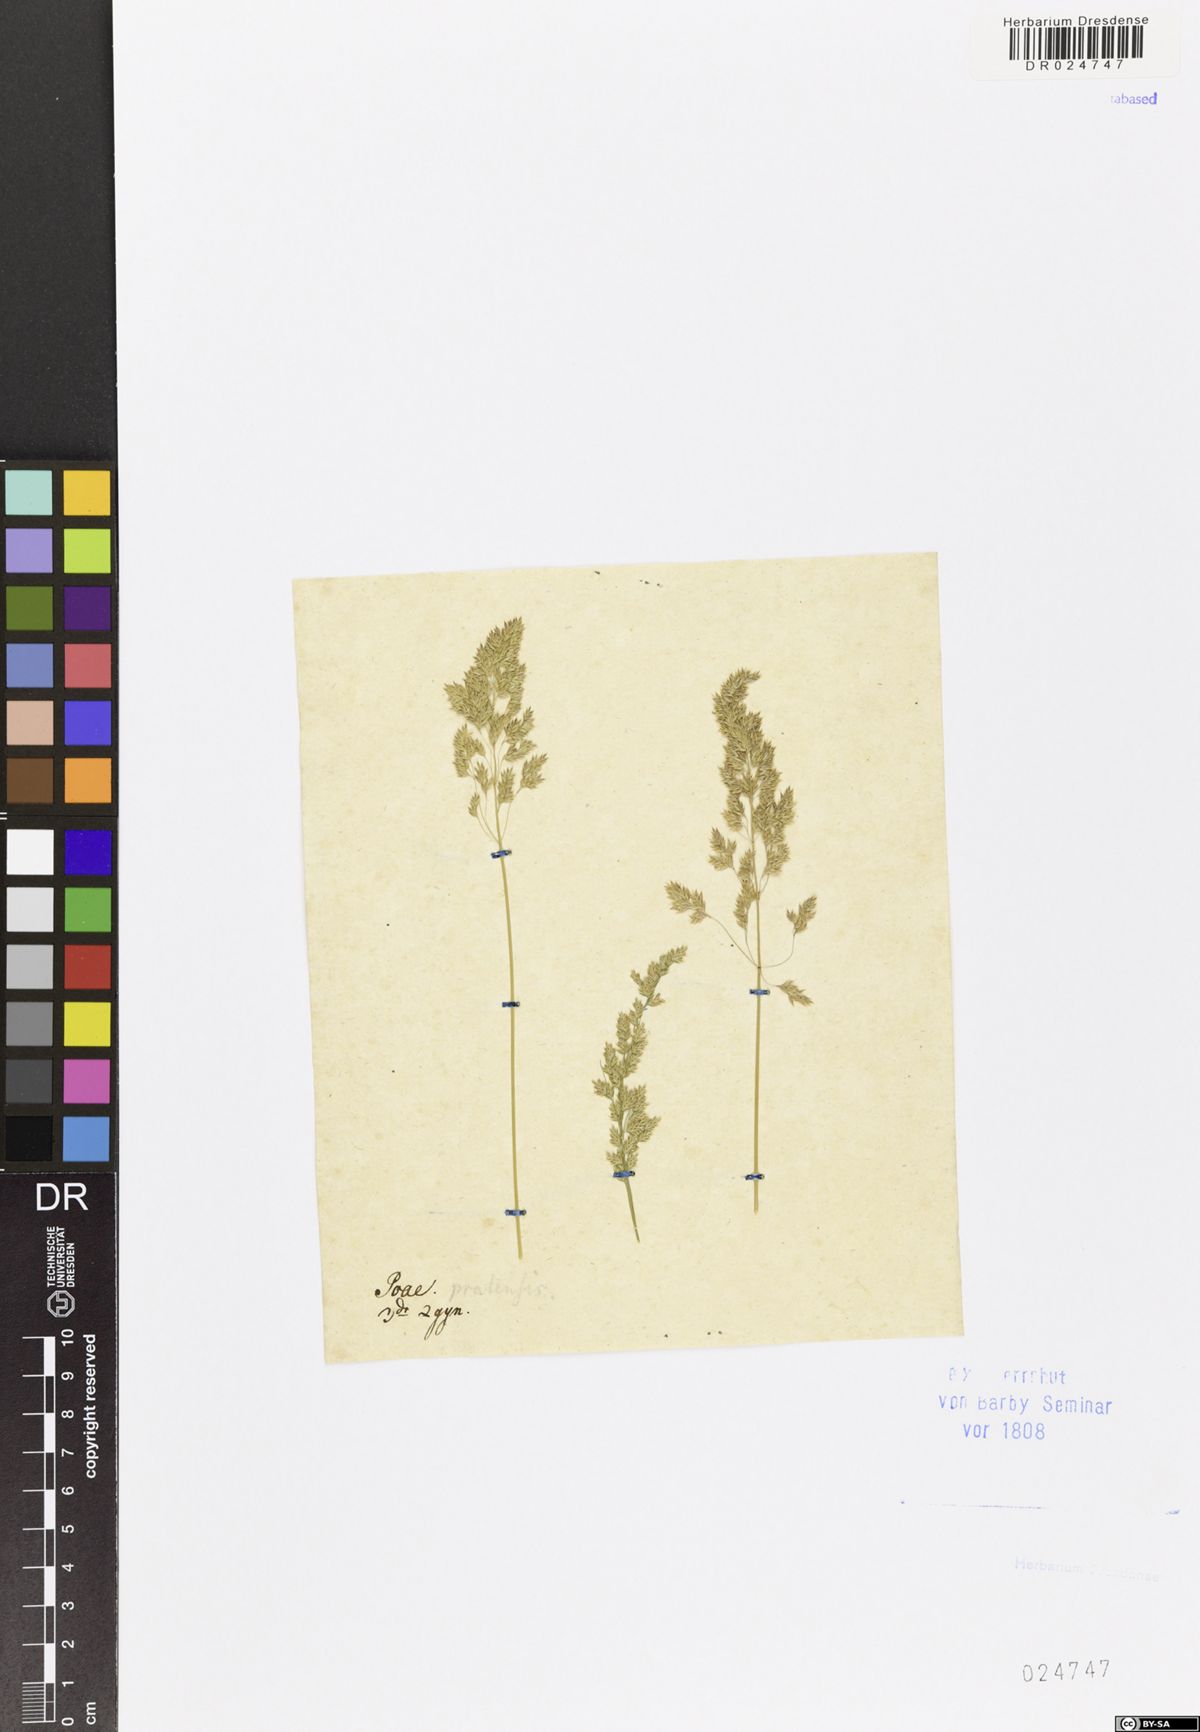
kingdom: Plantae
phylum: Tracheophyta
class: Liliopsida
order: Poales
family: Poaceae
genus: Poa
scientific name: Poa pratensis
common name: Kentucky bluegrass
